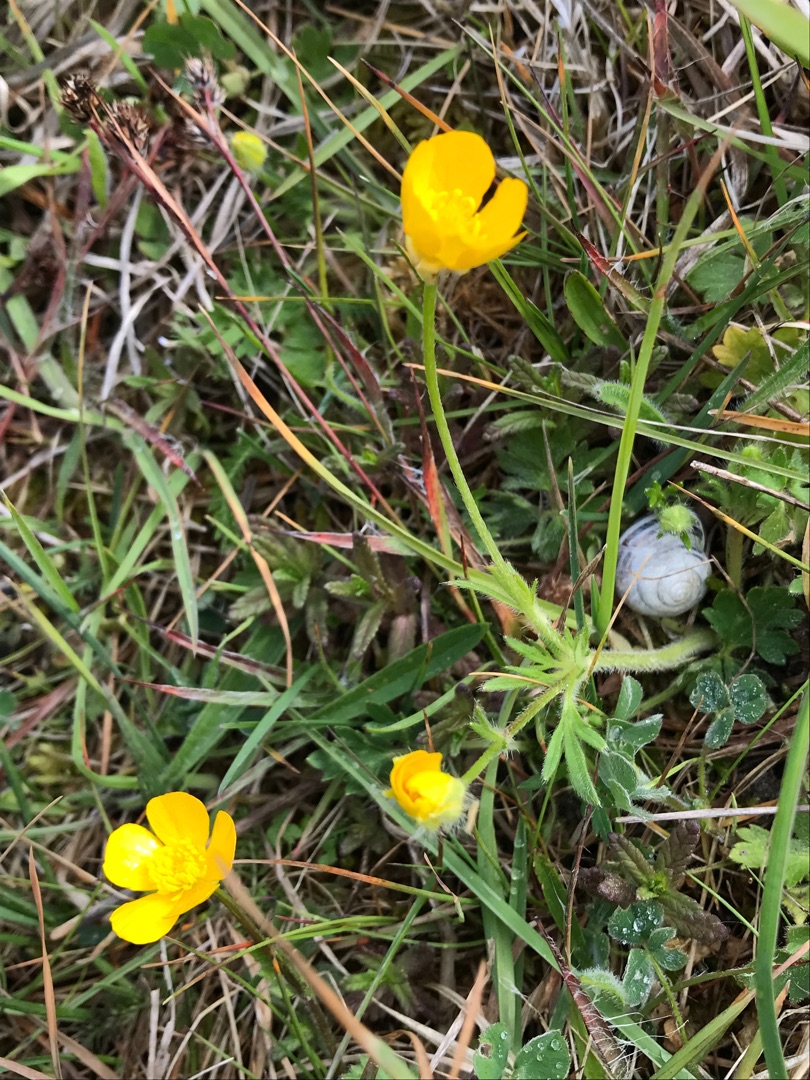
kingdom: Plantae
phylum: Tracheophyta
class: Magnoliopsida
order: Ranunculales
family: Ranunculaceae
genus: Ranunculus
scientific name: Ranunculus bulbosus
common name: Knold-ranunkel
